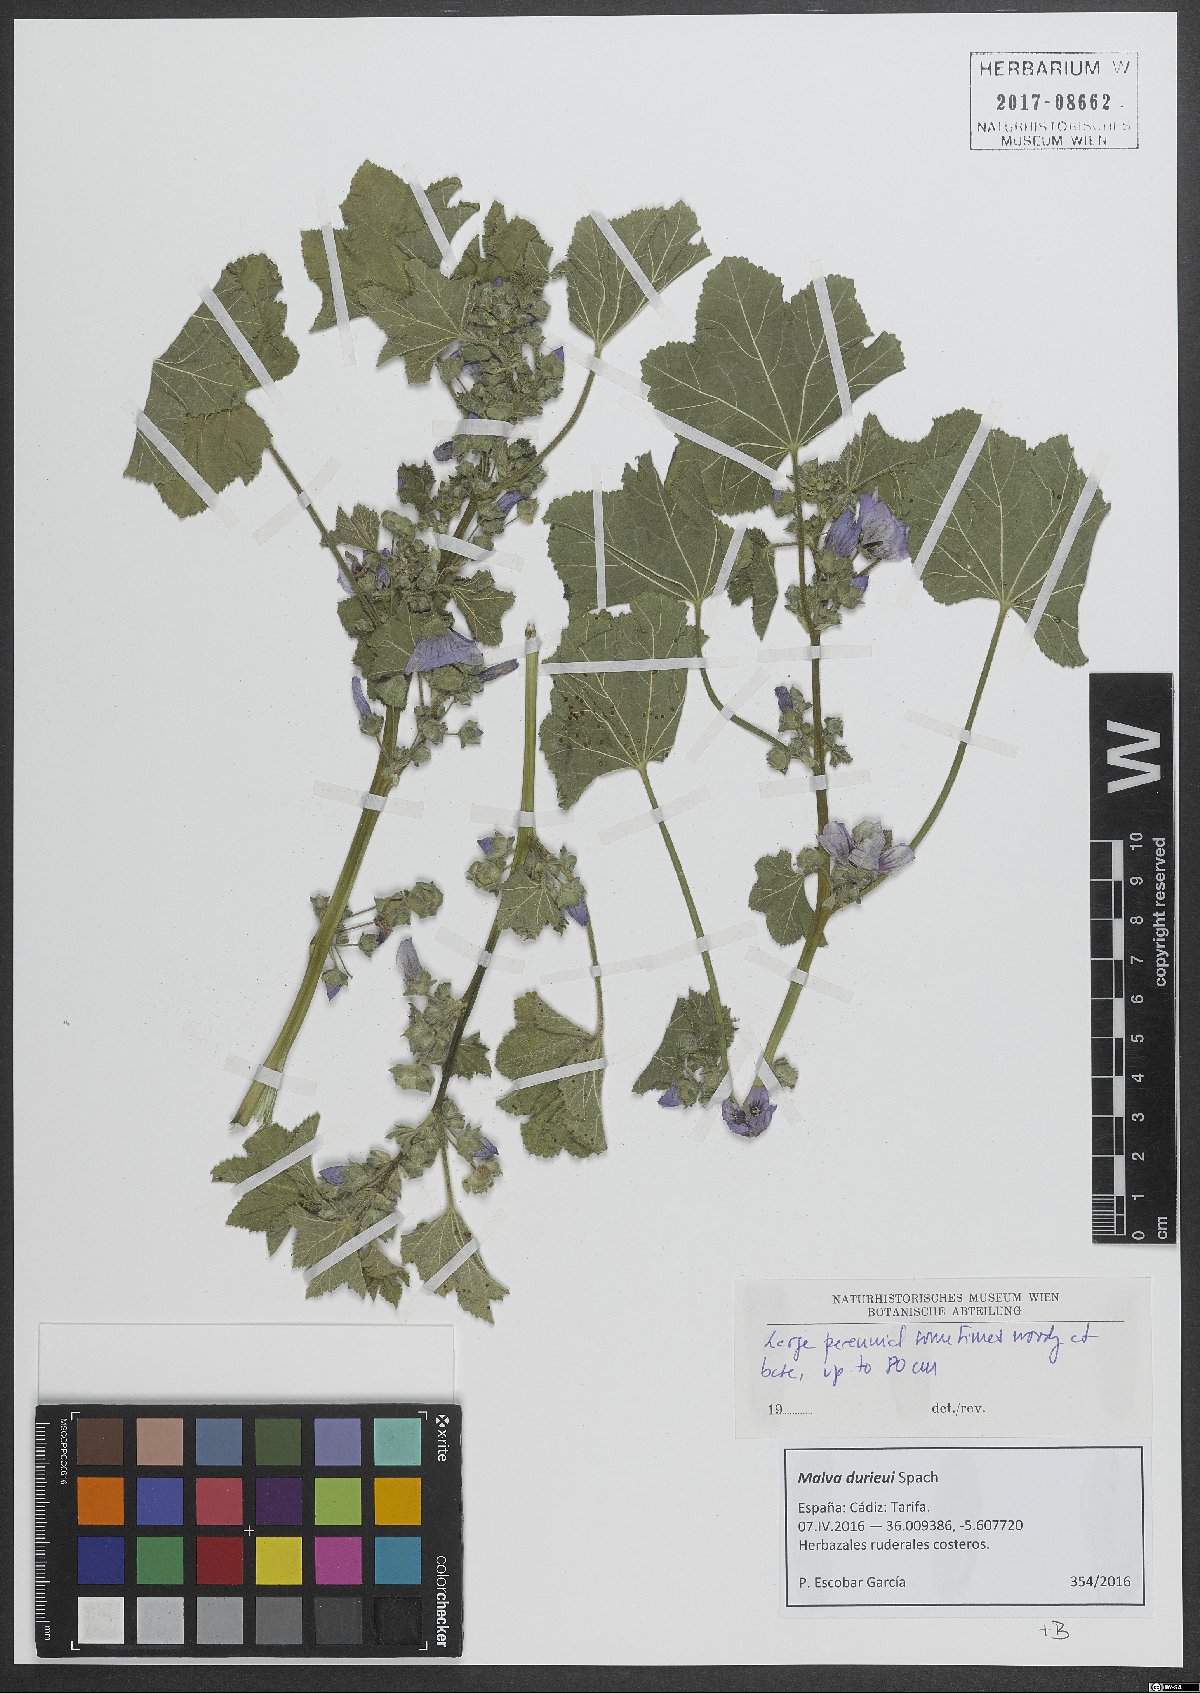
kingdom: Plantae
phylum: Tracheophyta
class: Magnoliopsida
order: Malvales
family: Malvaceae
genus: Malva
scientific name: Malva durieui
